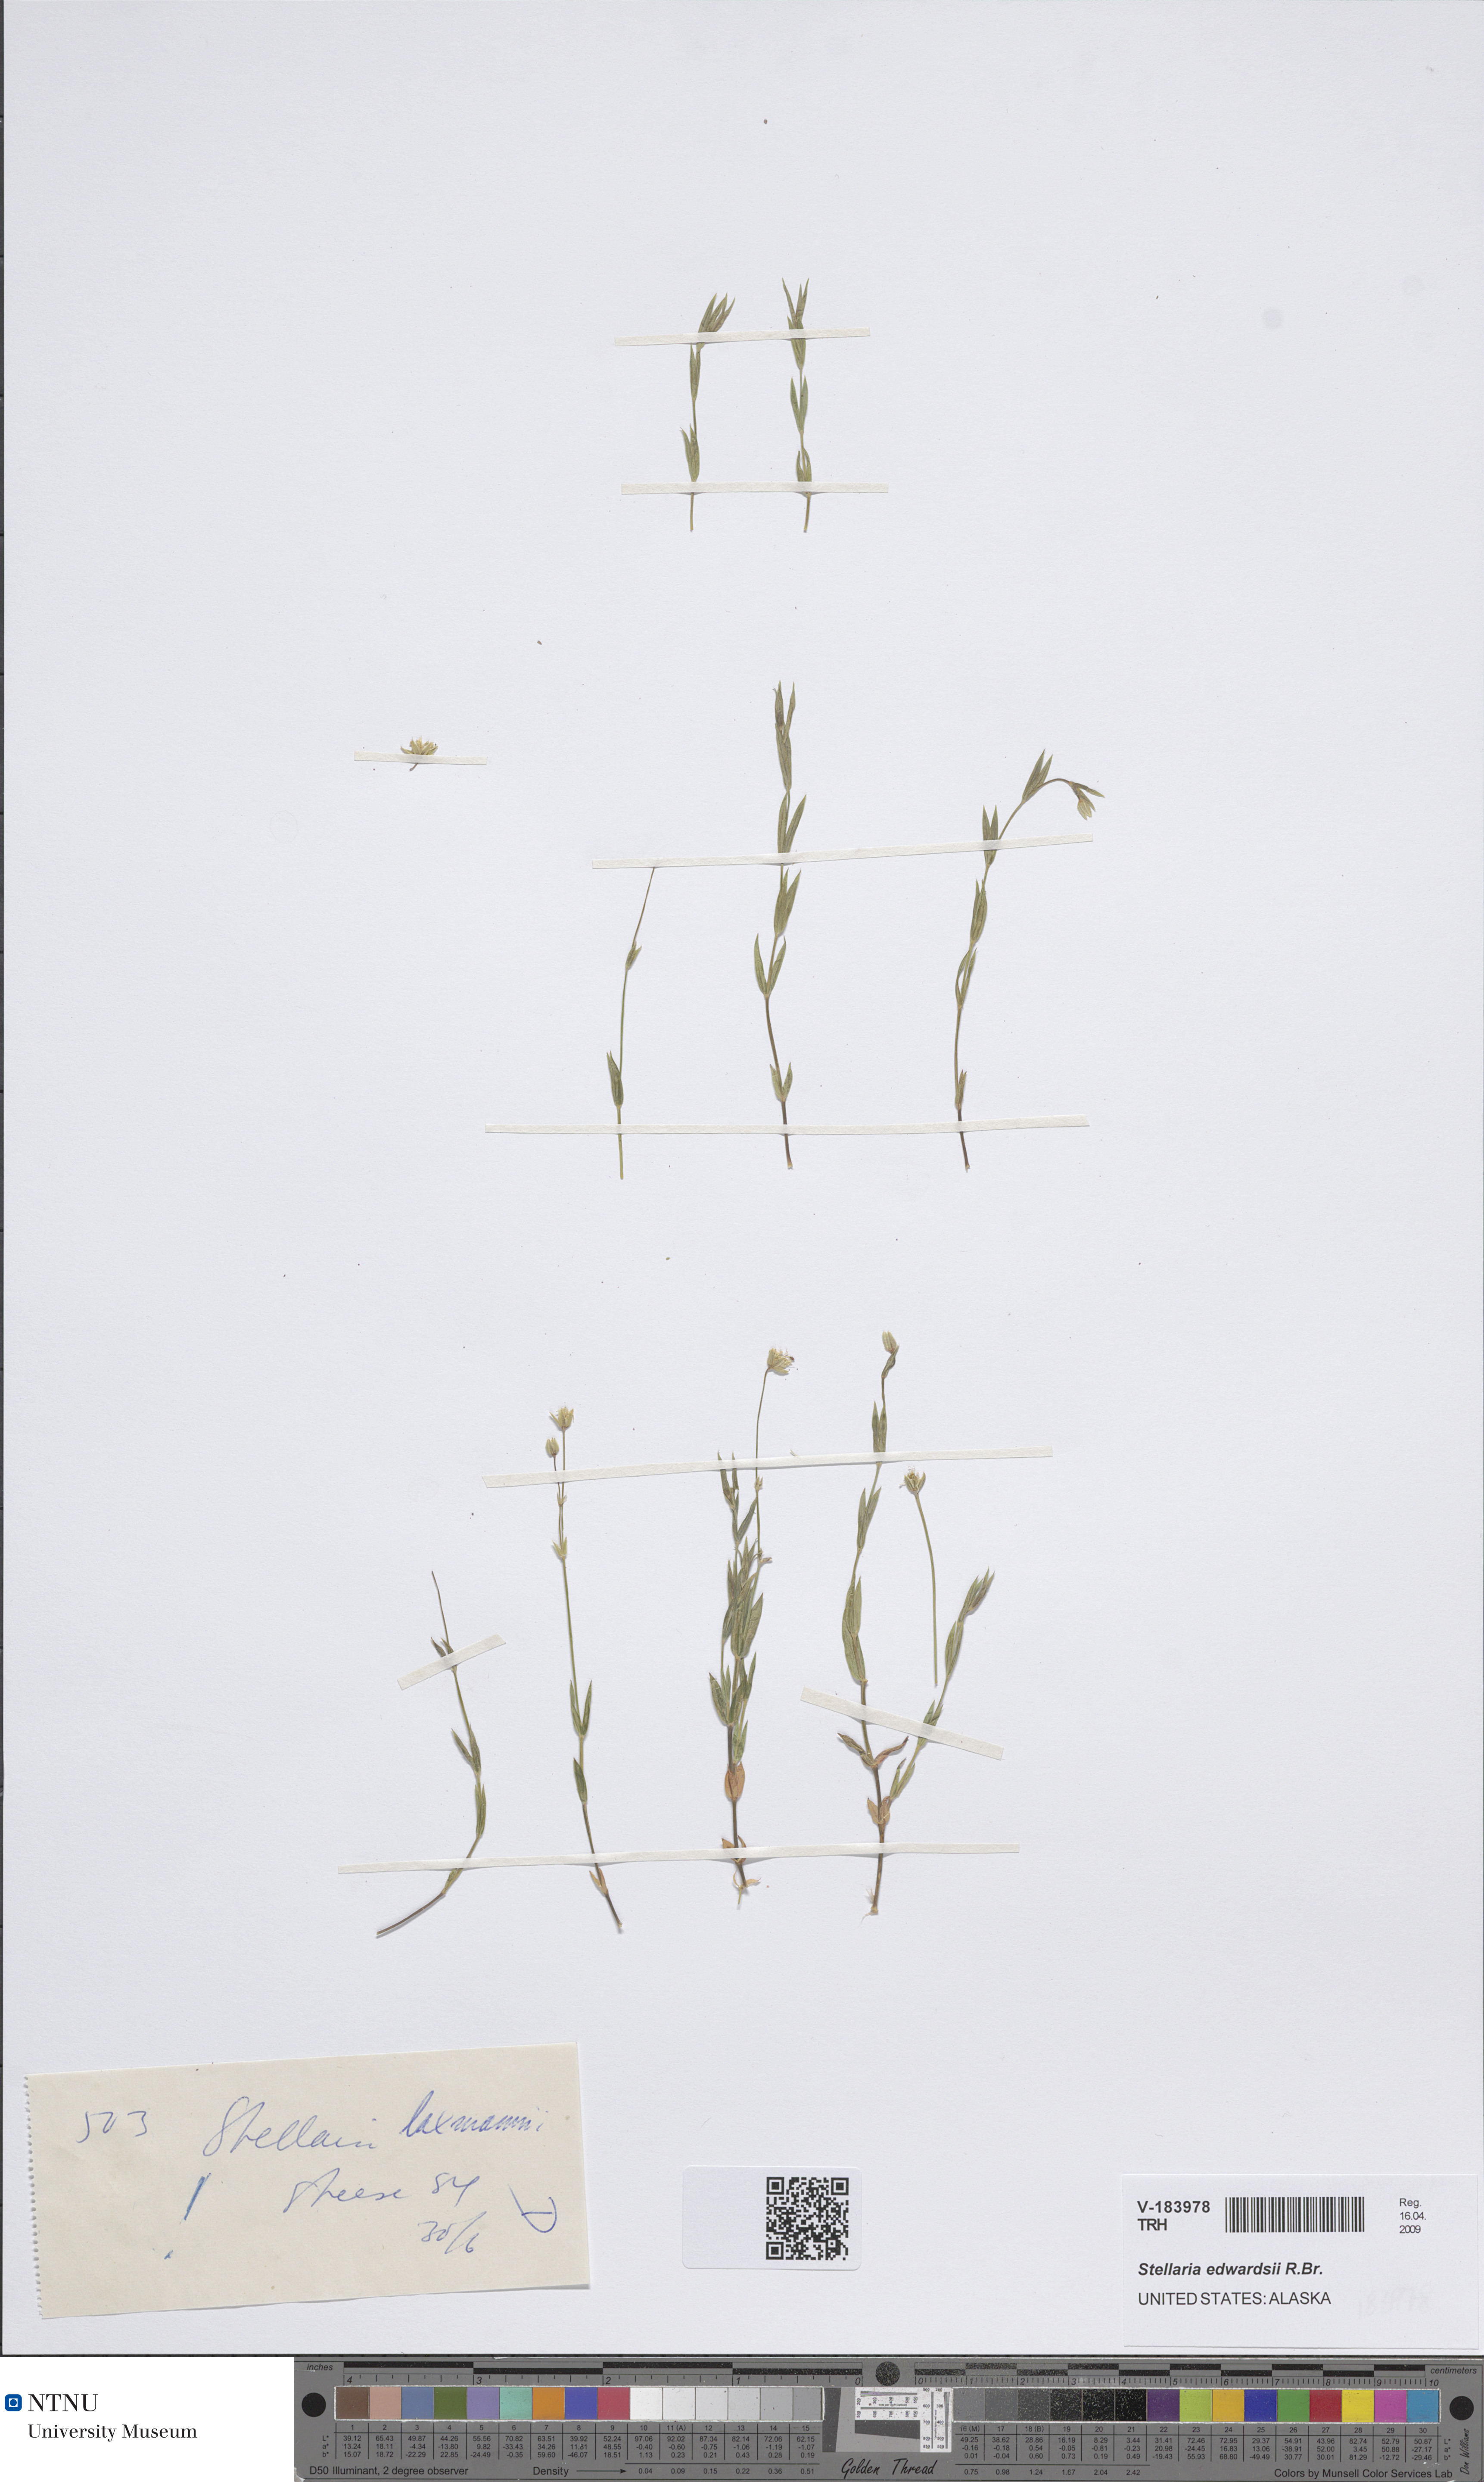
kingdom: Plantae
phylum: Tracheophyta
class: Magnoliopsida
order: Caryophyllales
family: Caryophyllaceae
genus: Stellaria
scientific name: Stellaria edwardsii
